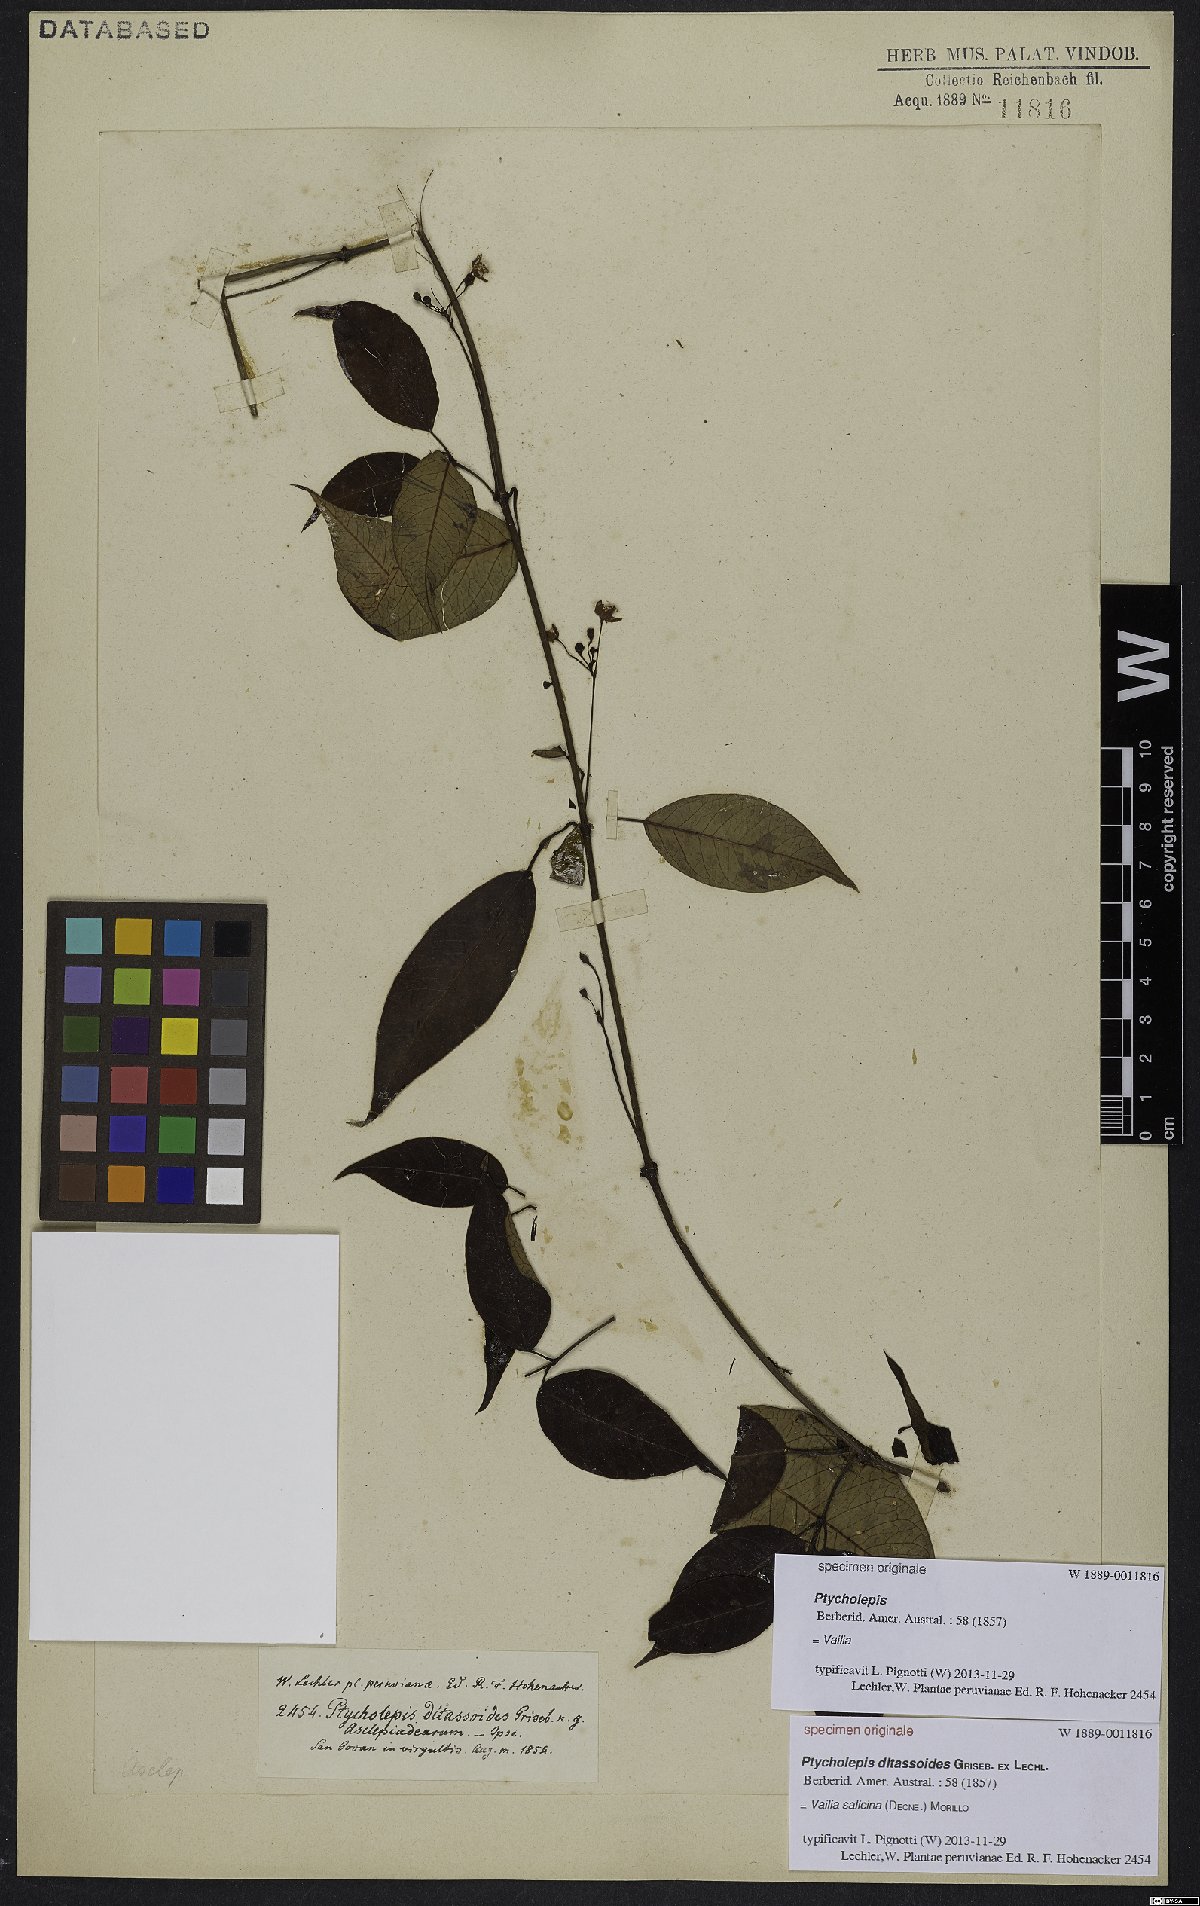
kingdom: Plantae
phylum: Tracheophyta
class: Magnoliopsida
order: Gentianales
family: Apocynaceae
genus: Vailia
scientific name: Vailia salicina
